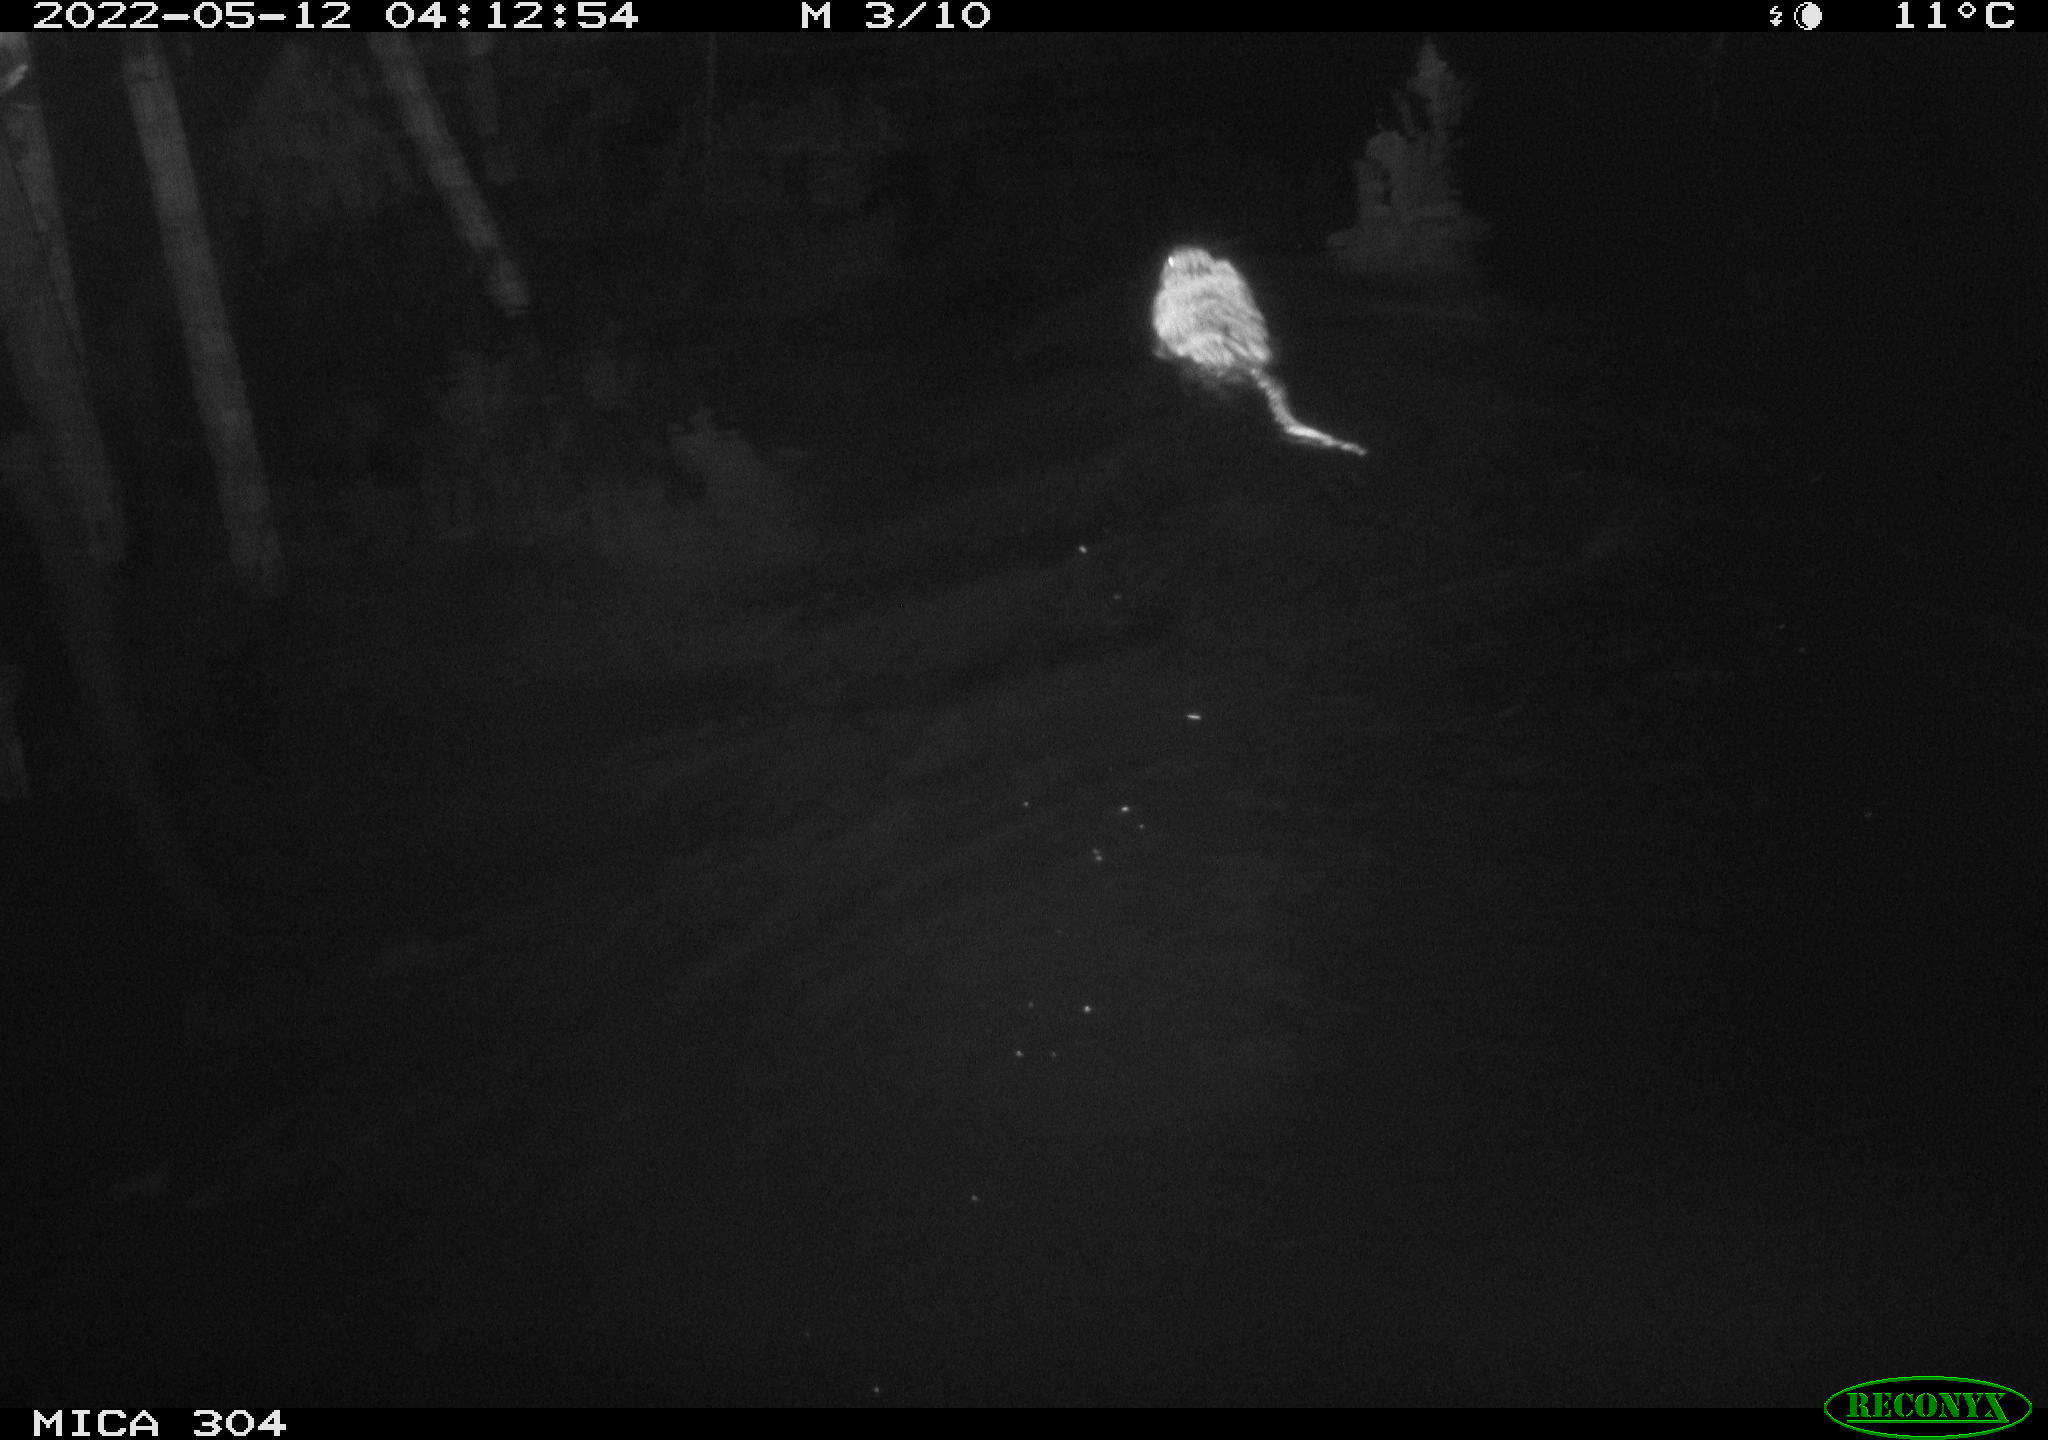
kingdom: Animalia
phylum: Chordata
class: Mammalia
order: Rodentia
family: Cricetidae
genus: Ondatra
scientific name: Ondatra zibethicus
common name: Muskrat
